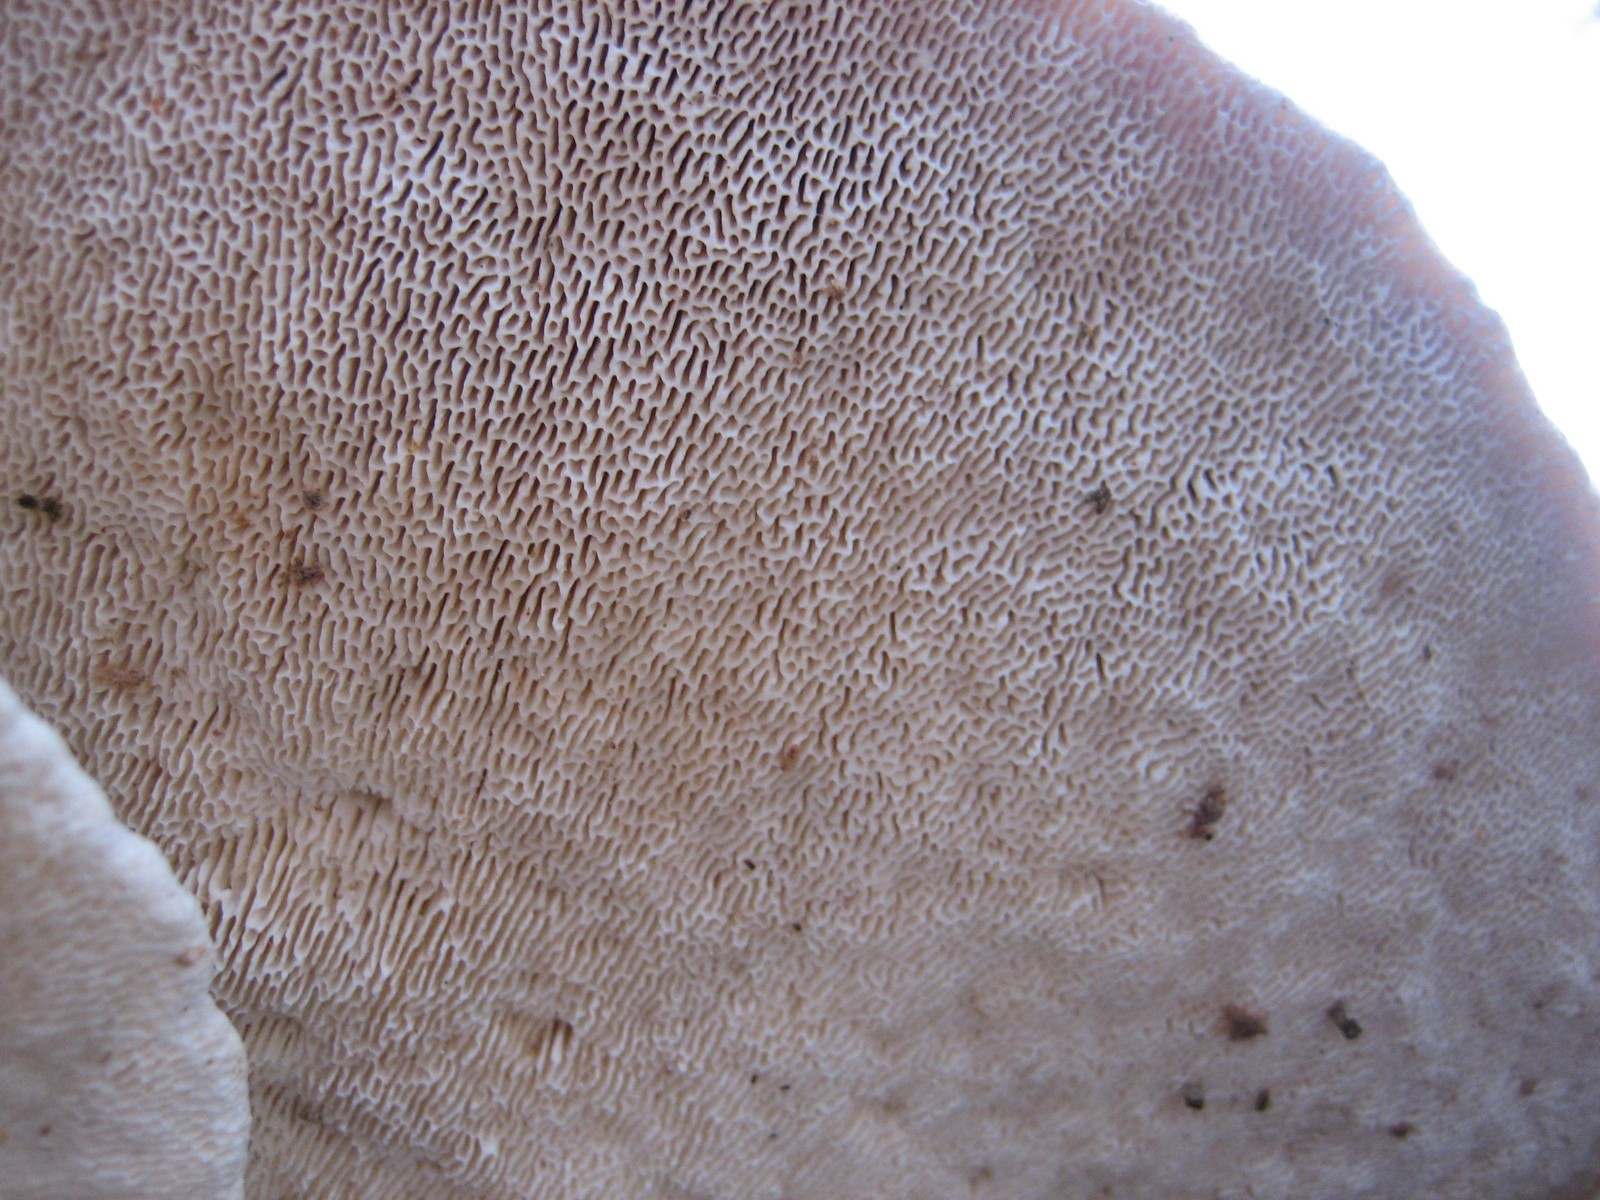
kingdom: Fungi
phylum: Basidiomycota
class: Agaricomycetes
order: Polyporales
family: Polyporaceae
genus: Trametes
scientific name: Trametes gibbosa
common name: puklet læderporesvamp
